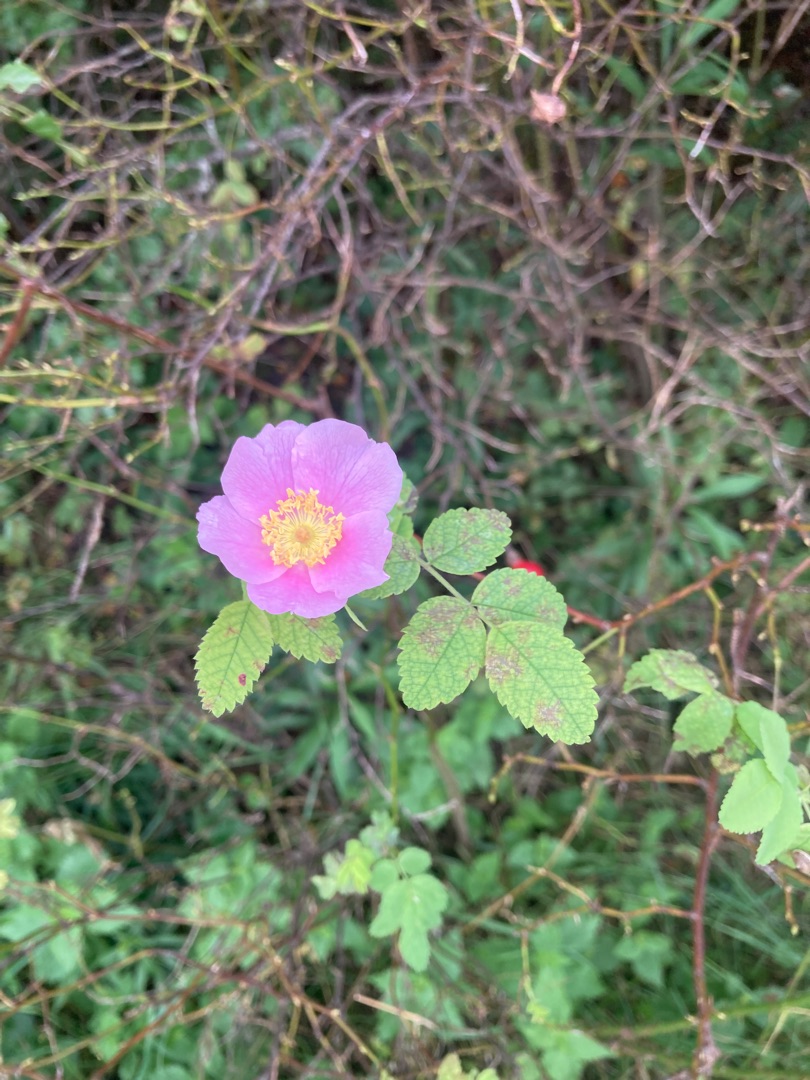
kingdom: Plantae
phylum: Tracheophyta
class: Magnoliopsida
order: Rosales
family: Rosaceae
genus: Rosa
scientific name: Rosa
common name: Roseslægten
